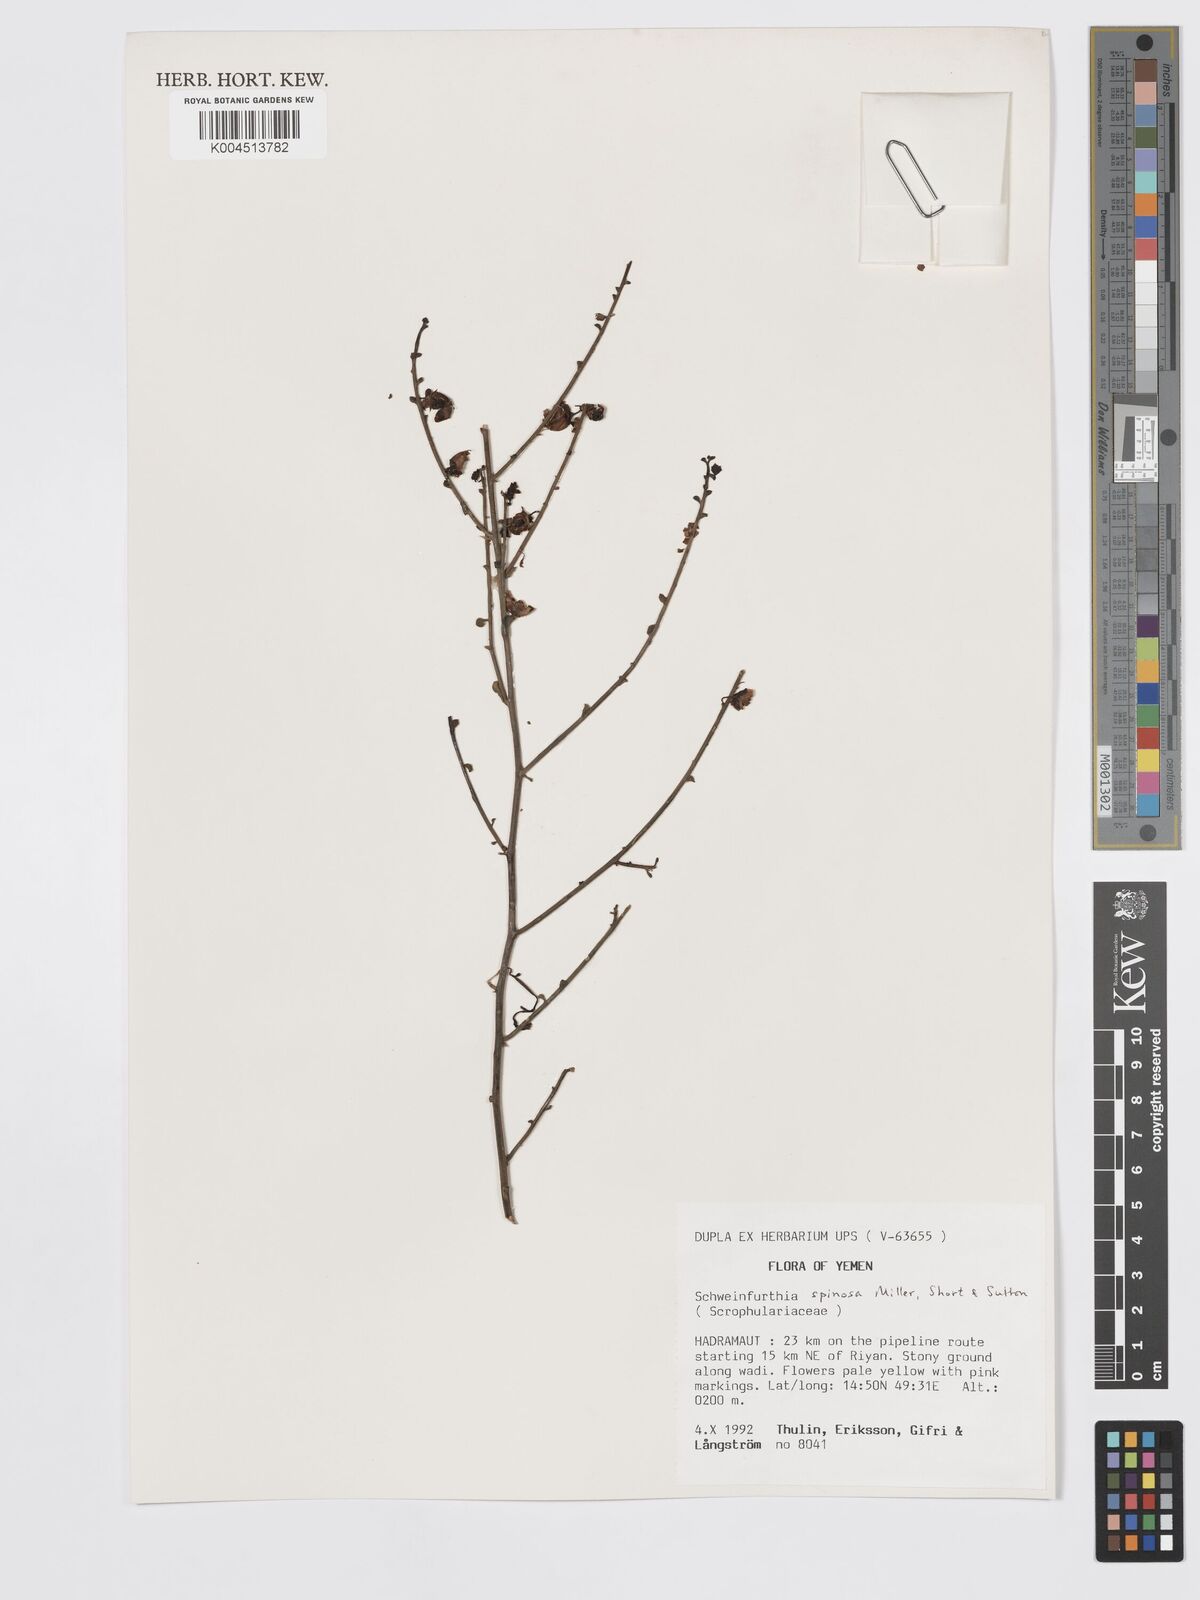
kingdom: Plantae
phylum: Tracheophyta
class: Magnoliopsida
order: Lamiales
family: Plantaginaceae
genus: Schweinfurthia
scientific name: Schweinfurthia spinosa
